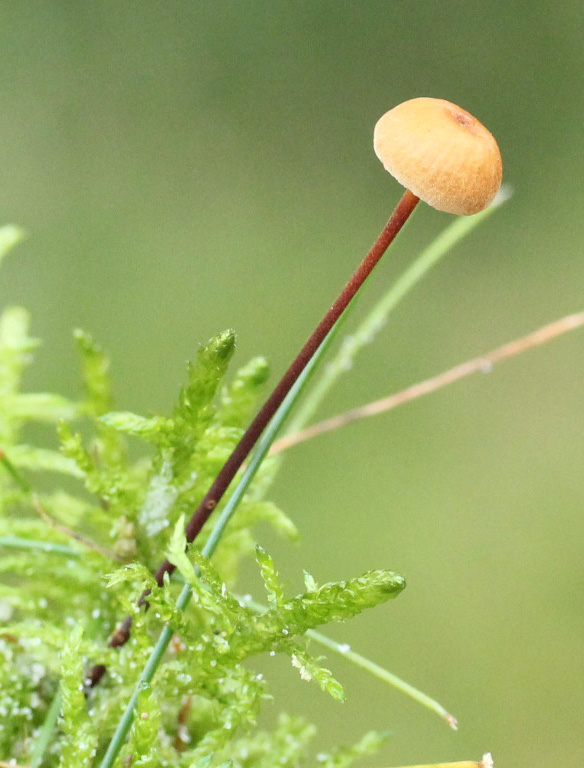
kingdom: Fungi
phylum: Basidiomycota
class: Agaricomycetes
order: Agaricales
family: Mycenaceae
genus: Xeromphalina
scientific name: Xeromphalina cornui
